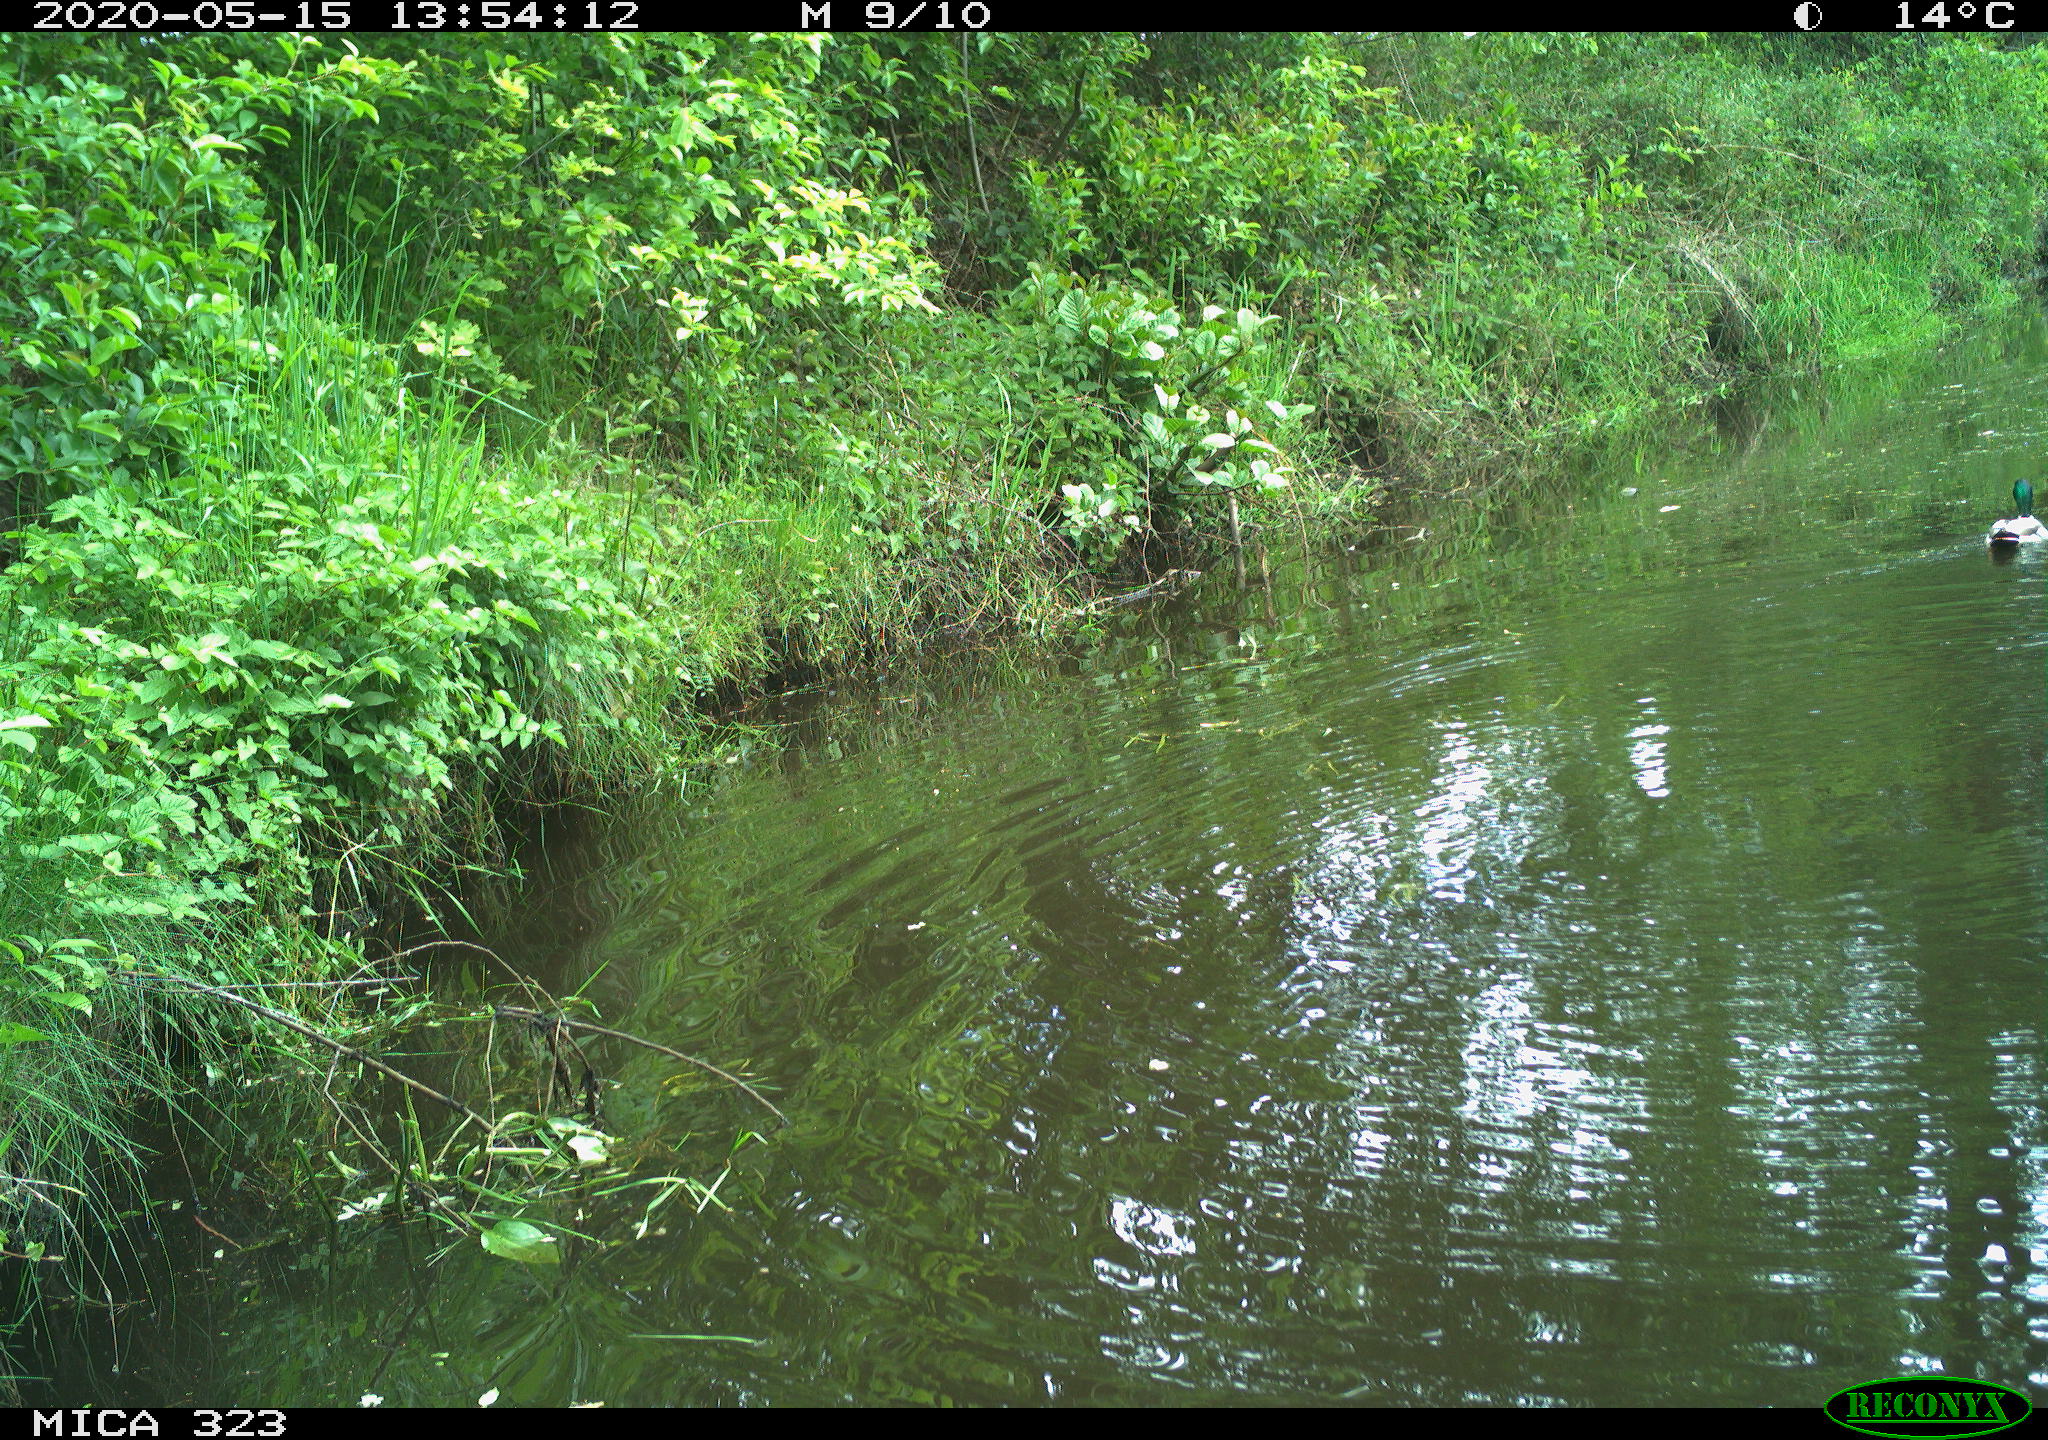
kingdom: Animalia
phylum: Chordata
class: Aves
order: Anseriformes
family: Anatidae
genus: Anas
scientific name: Anas platyrhynchos
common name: Mallard
